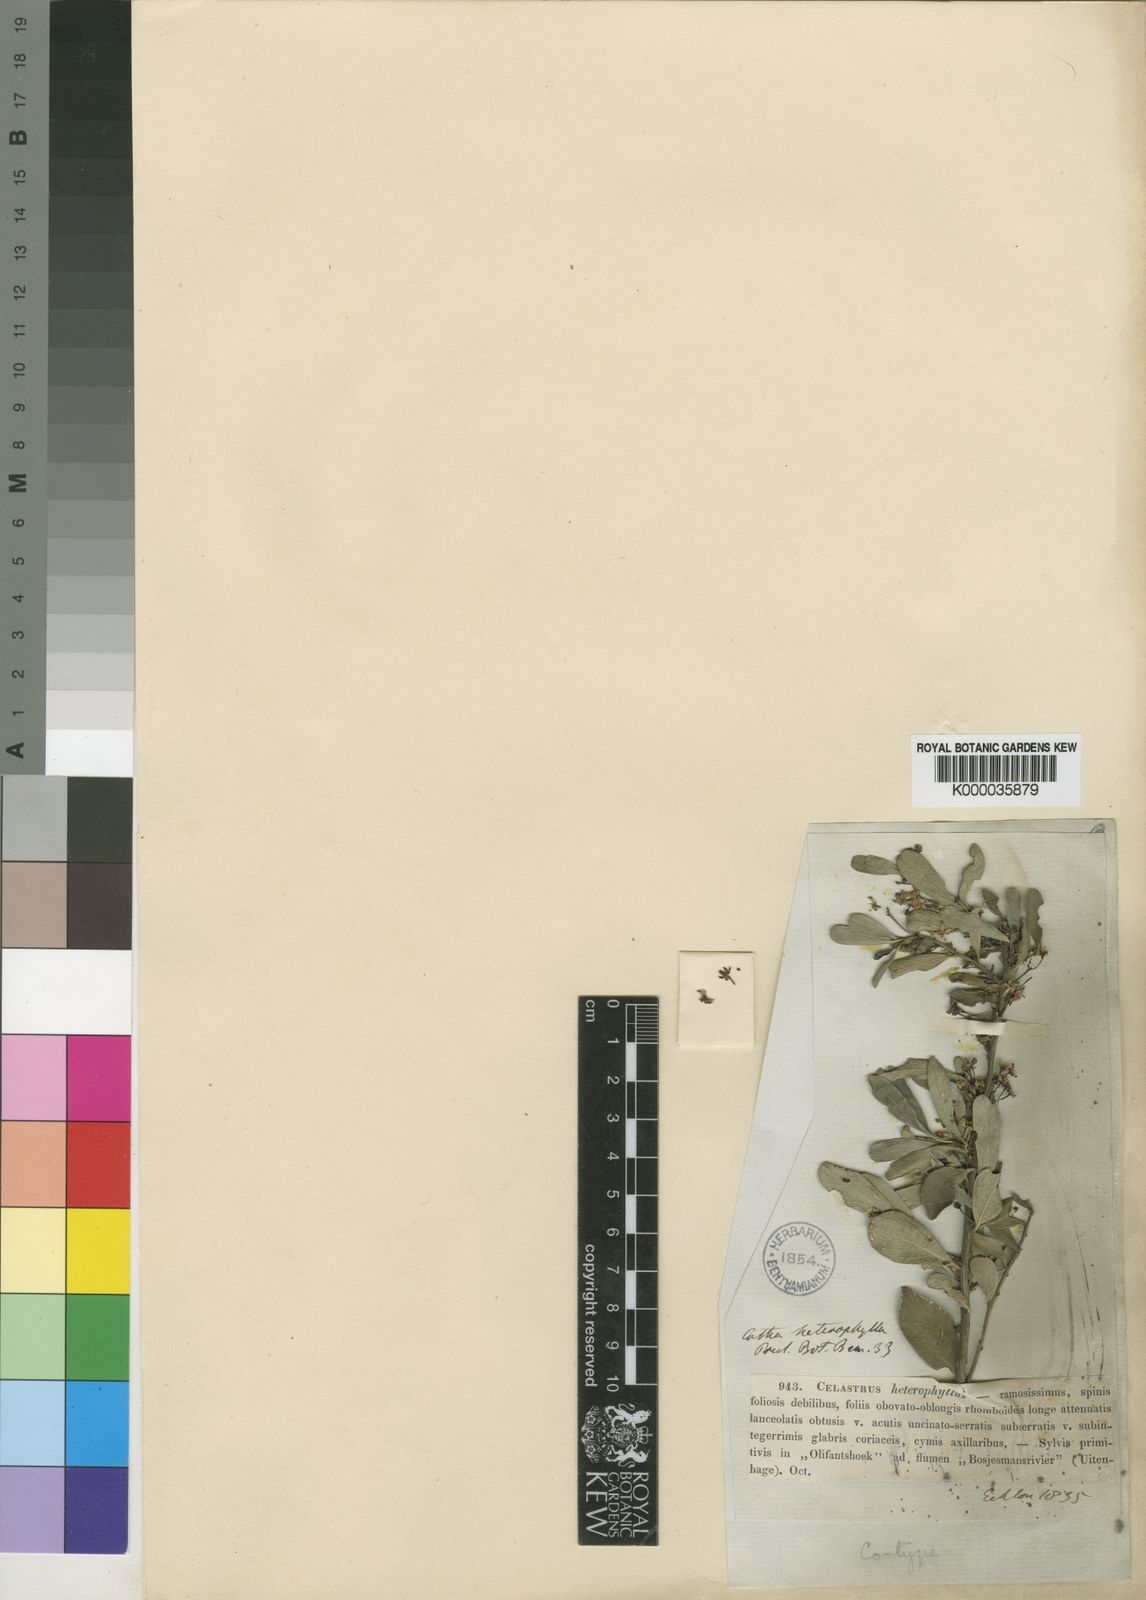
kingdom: Plantae
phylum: Tracheophyta
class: Magnoliopsida
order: Celastrales
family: Celastraceae
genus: Gymnosporia
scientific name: Gymnosporia heterophylla
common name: Angle-stem spikethorn
